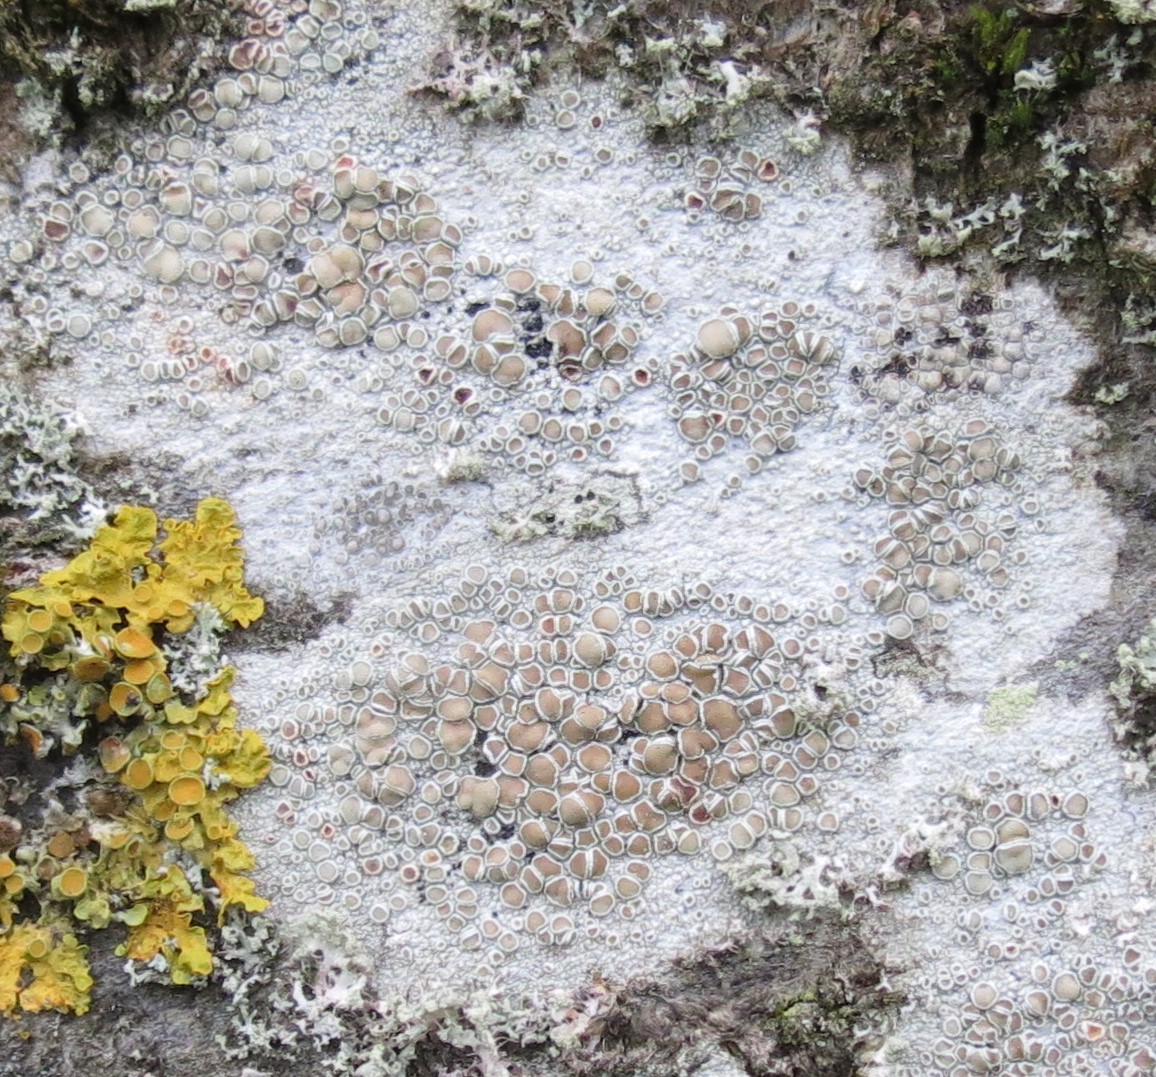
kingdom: Fungi
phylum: Ascomycota
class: Lecanoromycetes
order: Lecanorales
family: Lecanoraceae
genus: Lecanora
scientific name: Lecanora chlarotera
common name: brun kantskivelav
